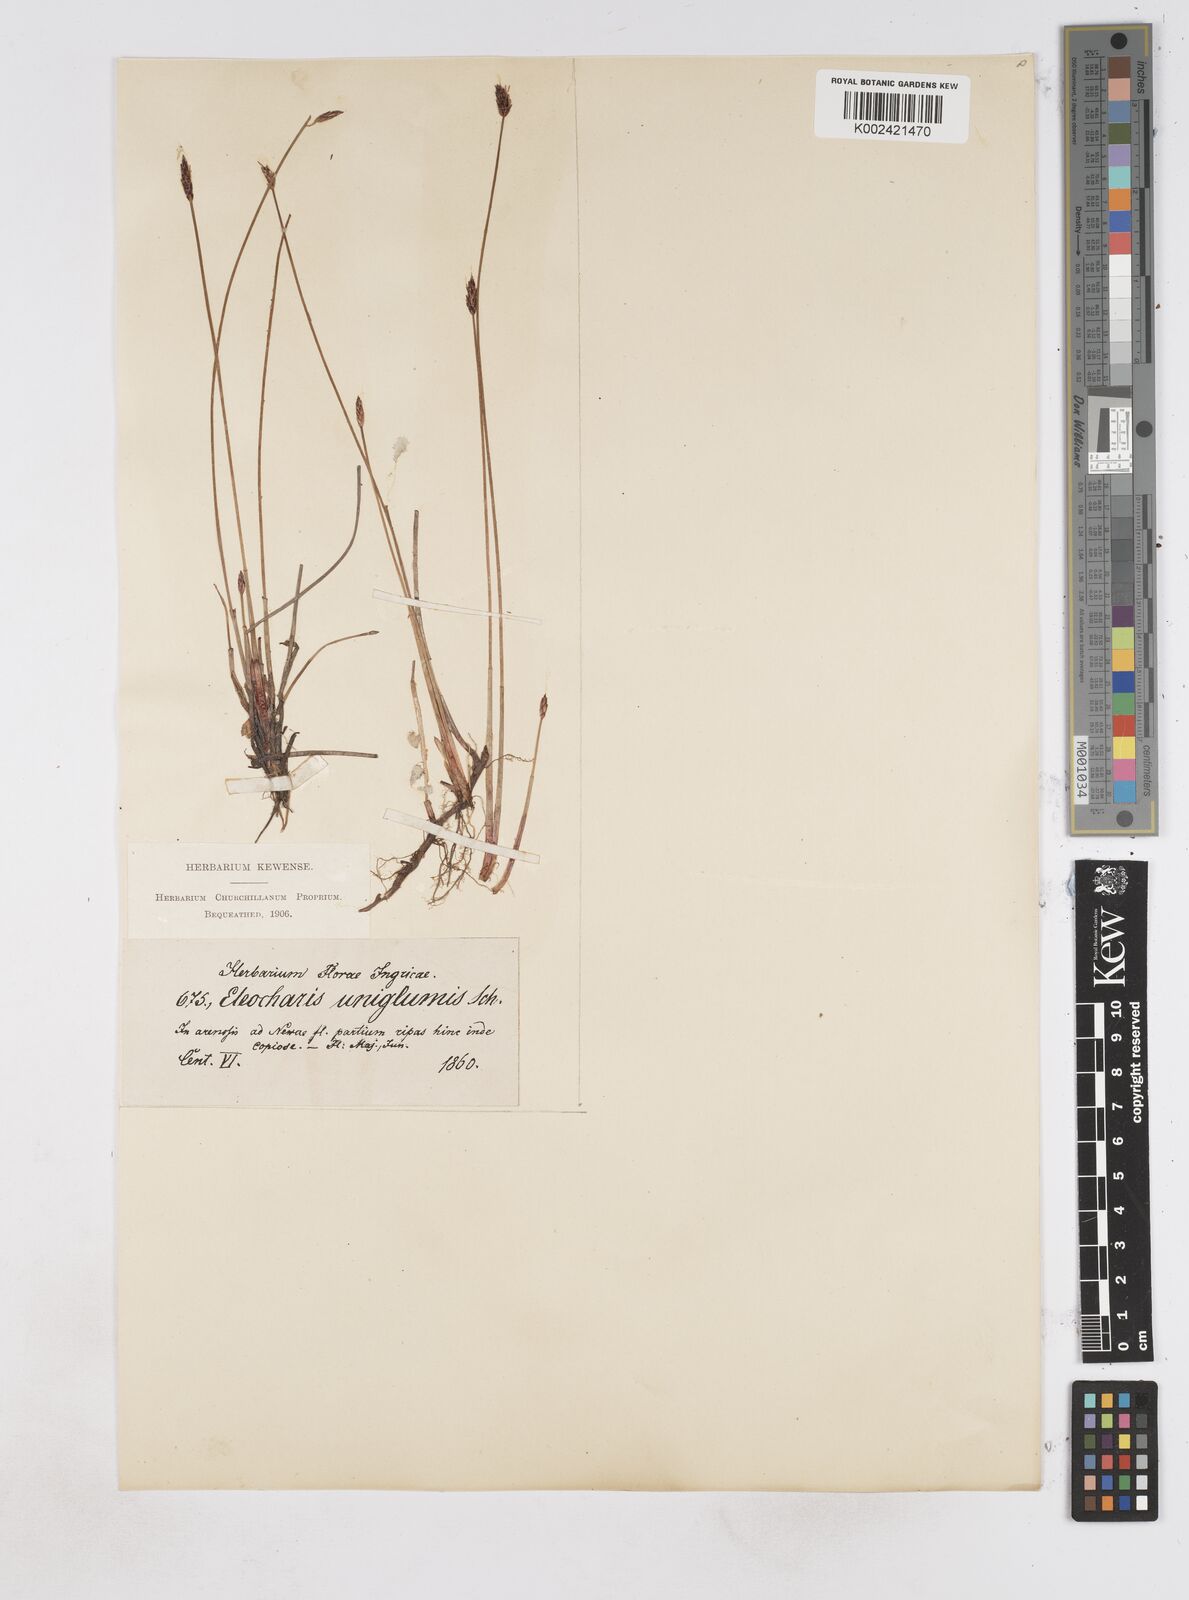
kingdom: Plantae
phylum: Tracheophyta
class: Liliopsida
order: Poales
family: Cyperaceae
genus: Eleocharis
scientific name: Eleocharis uniglumis
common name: Slender spike-rush
